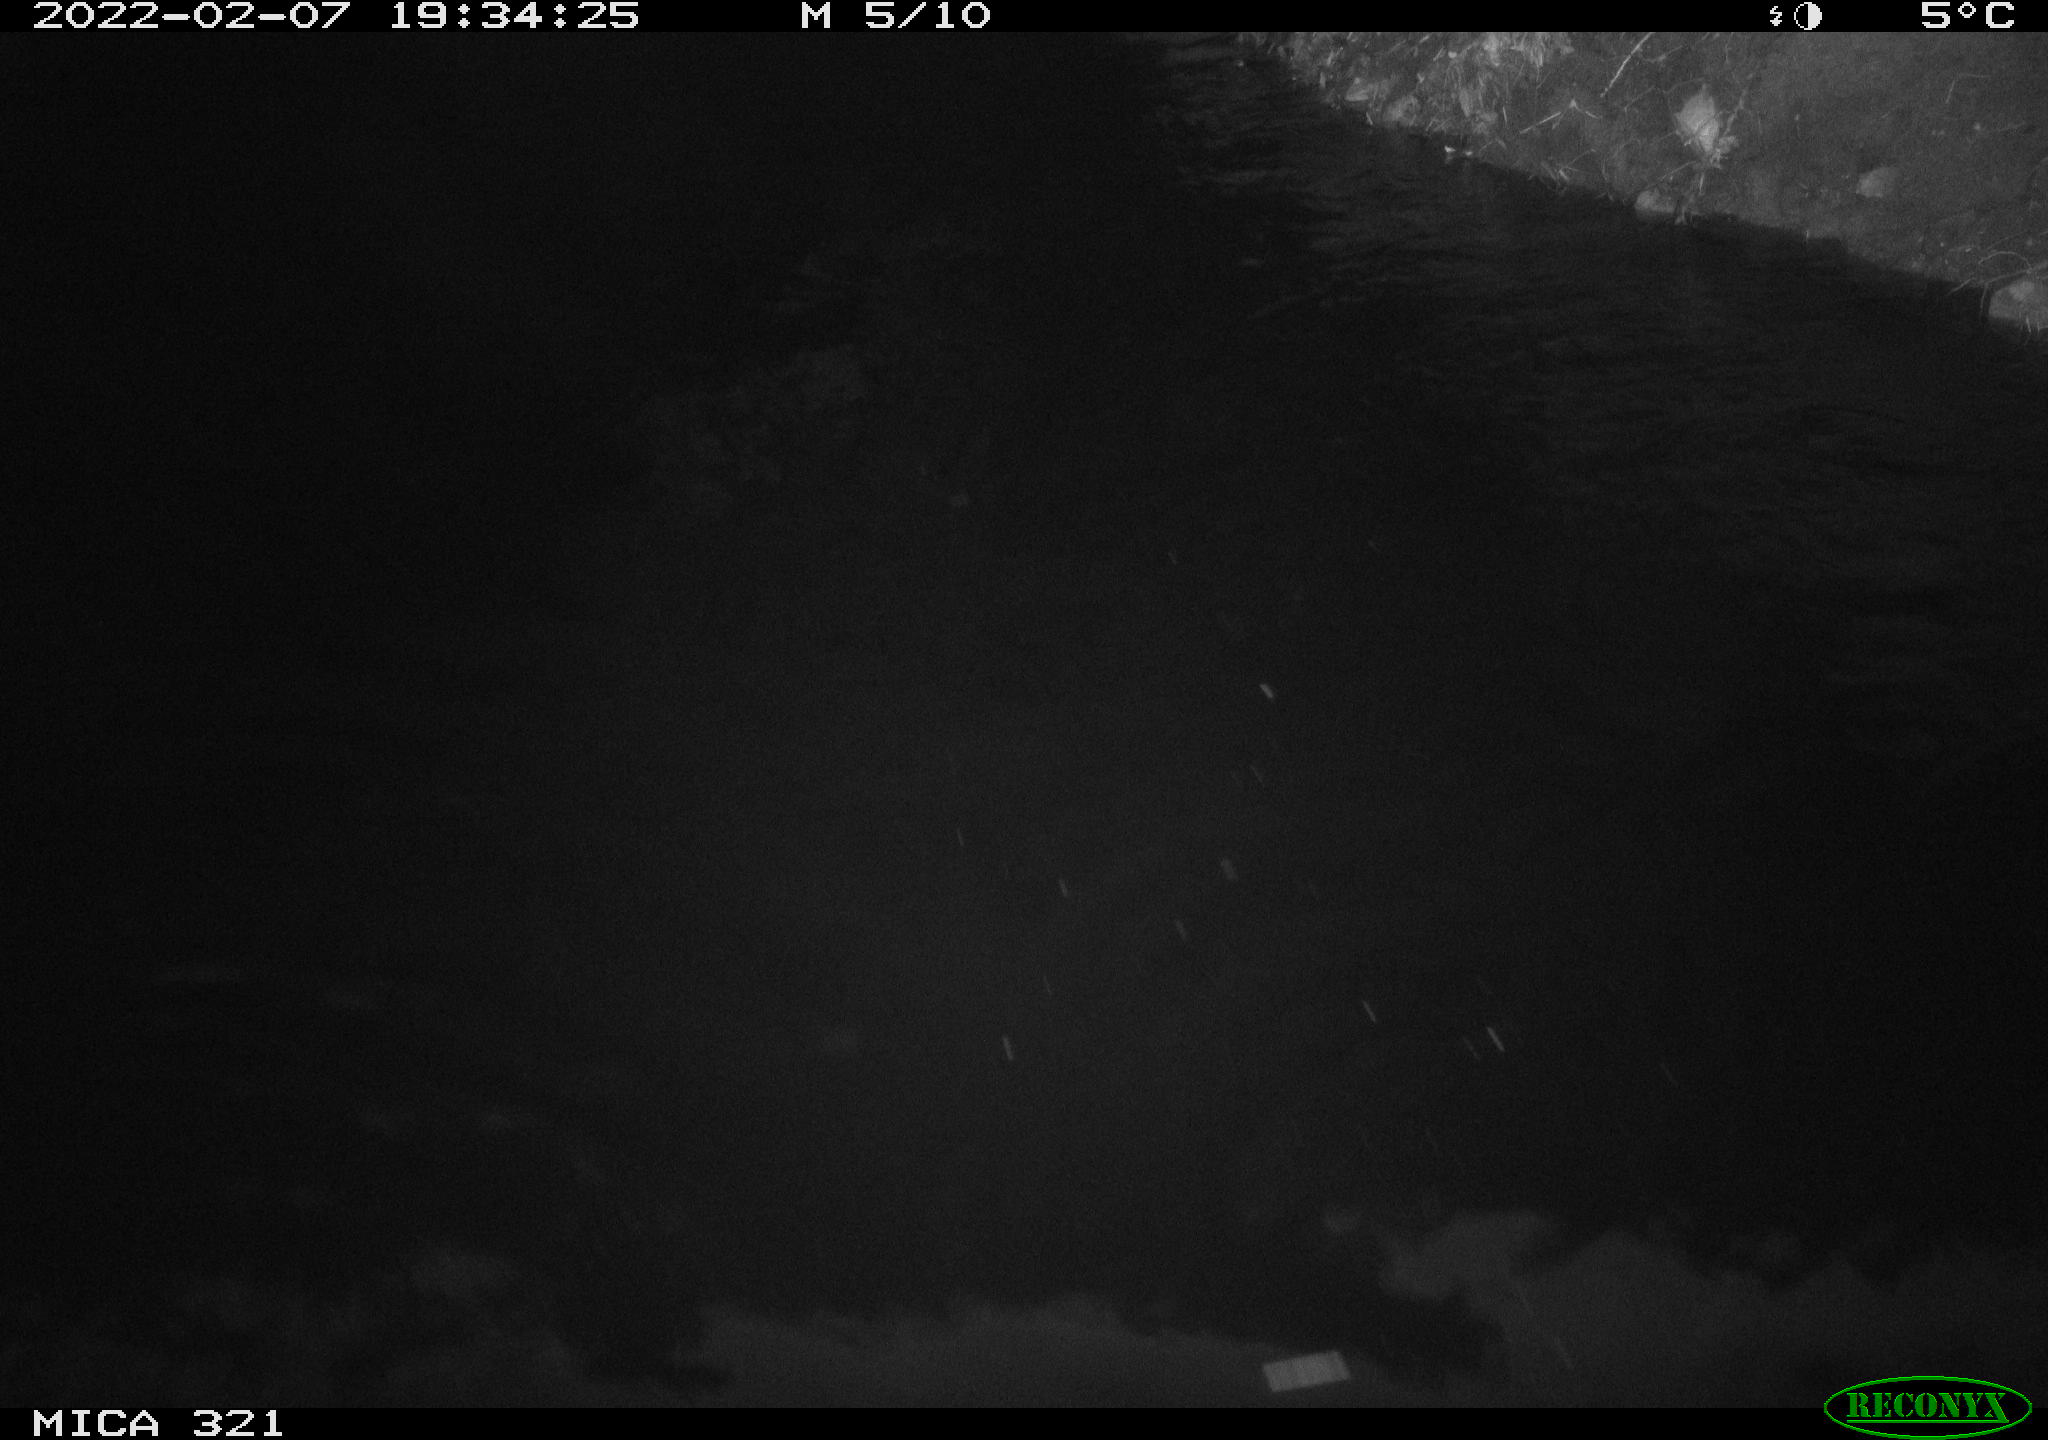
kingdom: Animalia
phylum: Chordata
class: Mammalia
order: Rodentia
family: Muridae
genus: Rattus
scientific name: Rattus norvegicus
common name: Brown rat
